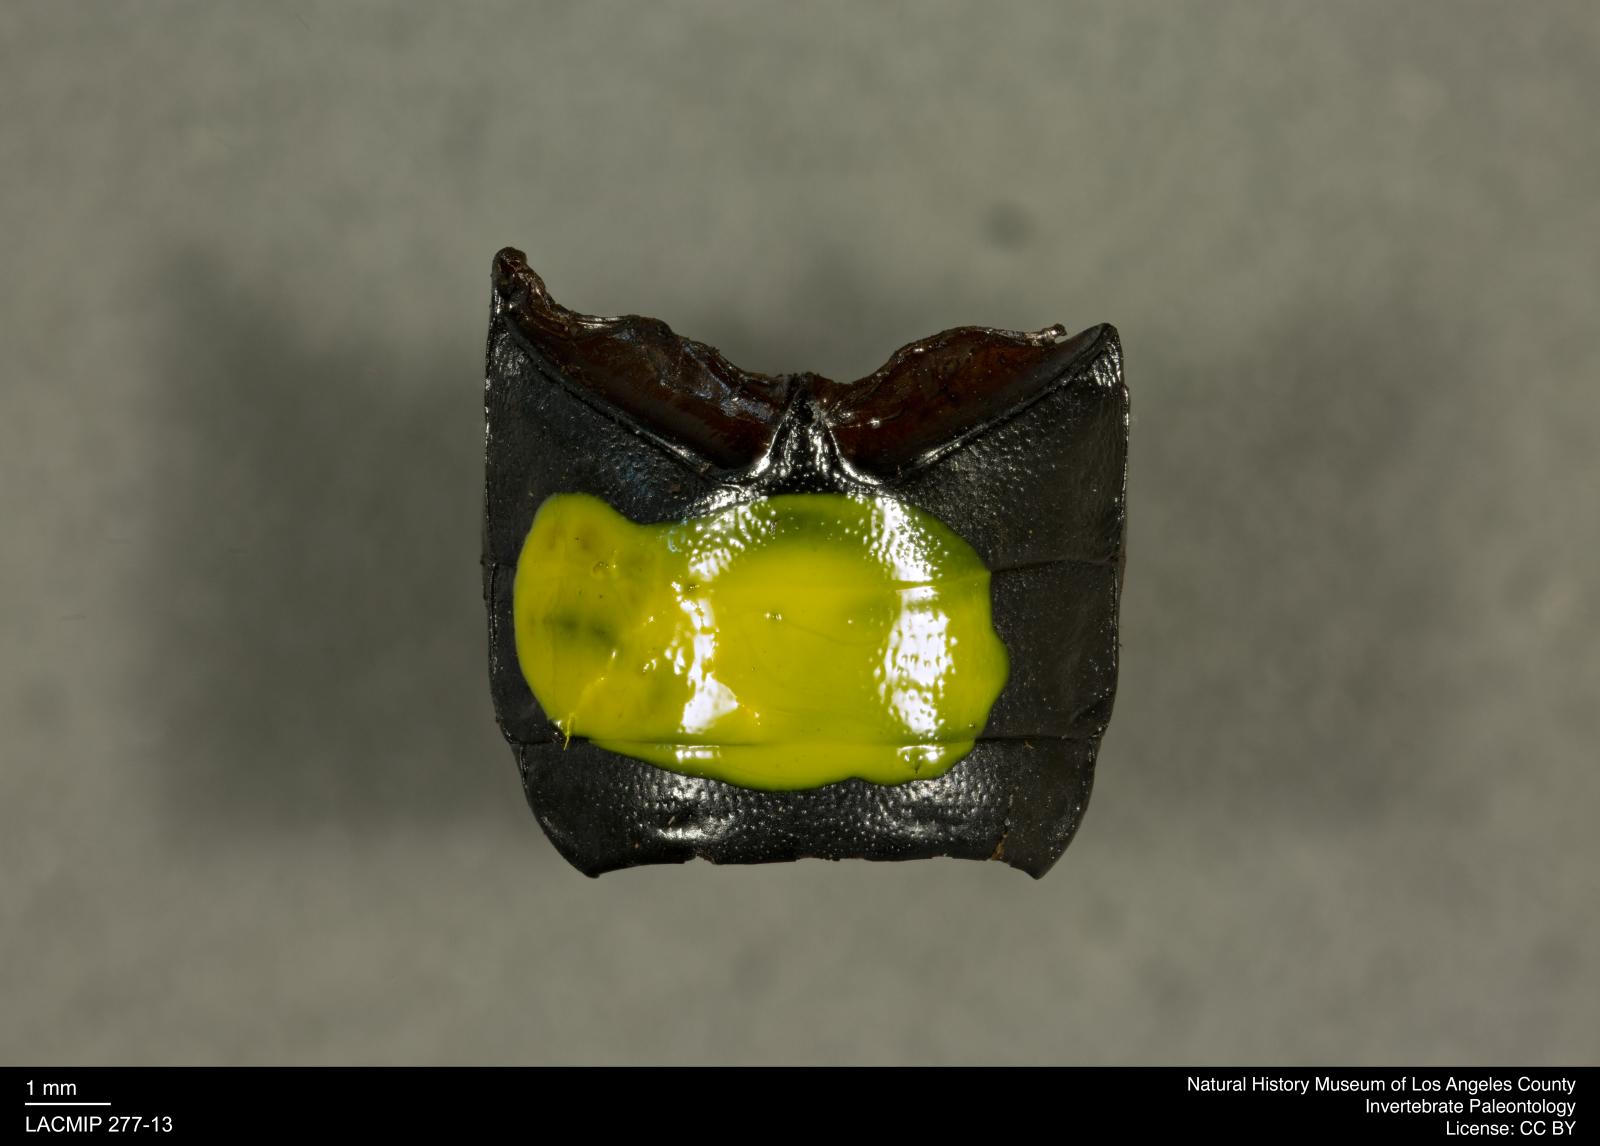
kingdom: Animalia
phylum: Arthropoda
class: Insecta
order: Coleoptera
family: Tenebrionidae
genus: Coniontis
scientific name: Coniontis abdominalis
